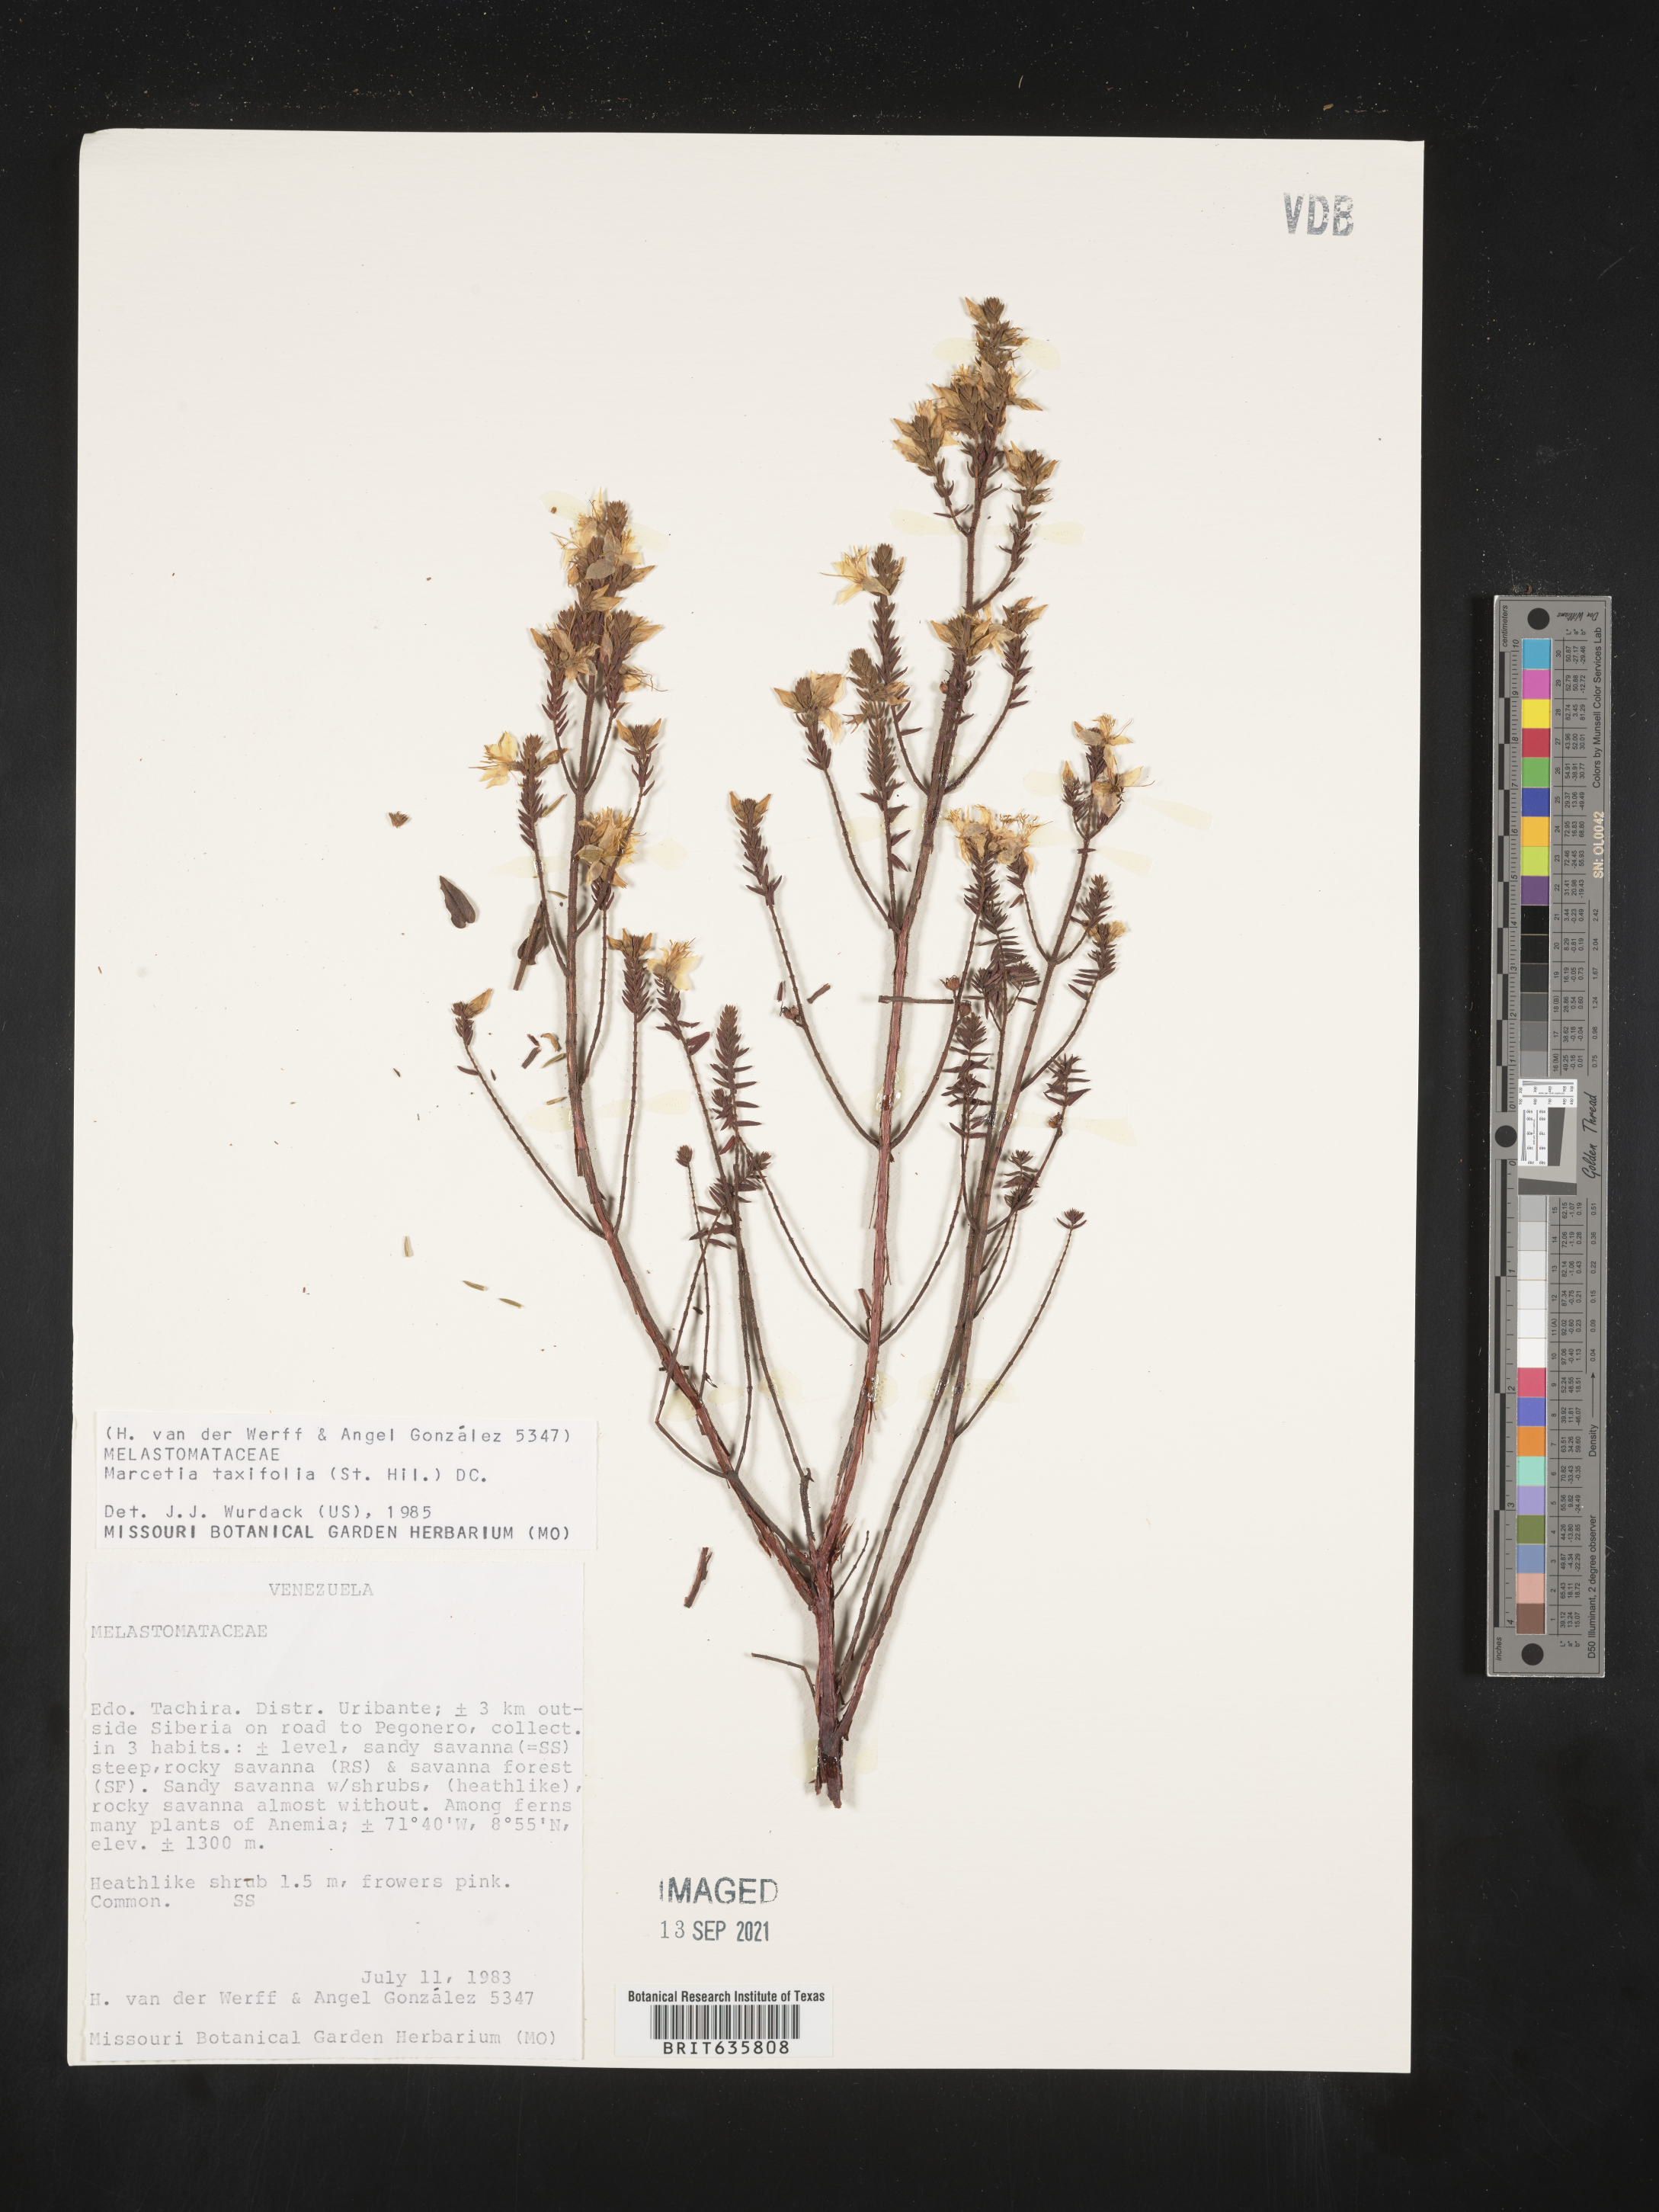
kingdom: Plantae
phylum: Tracheophyta
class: Magnoliopsida
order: Myrtales
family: Melastomataceae
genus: Marcetia
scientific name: Marcetia
